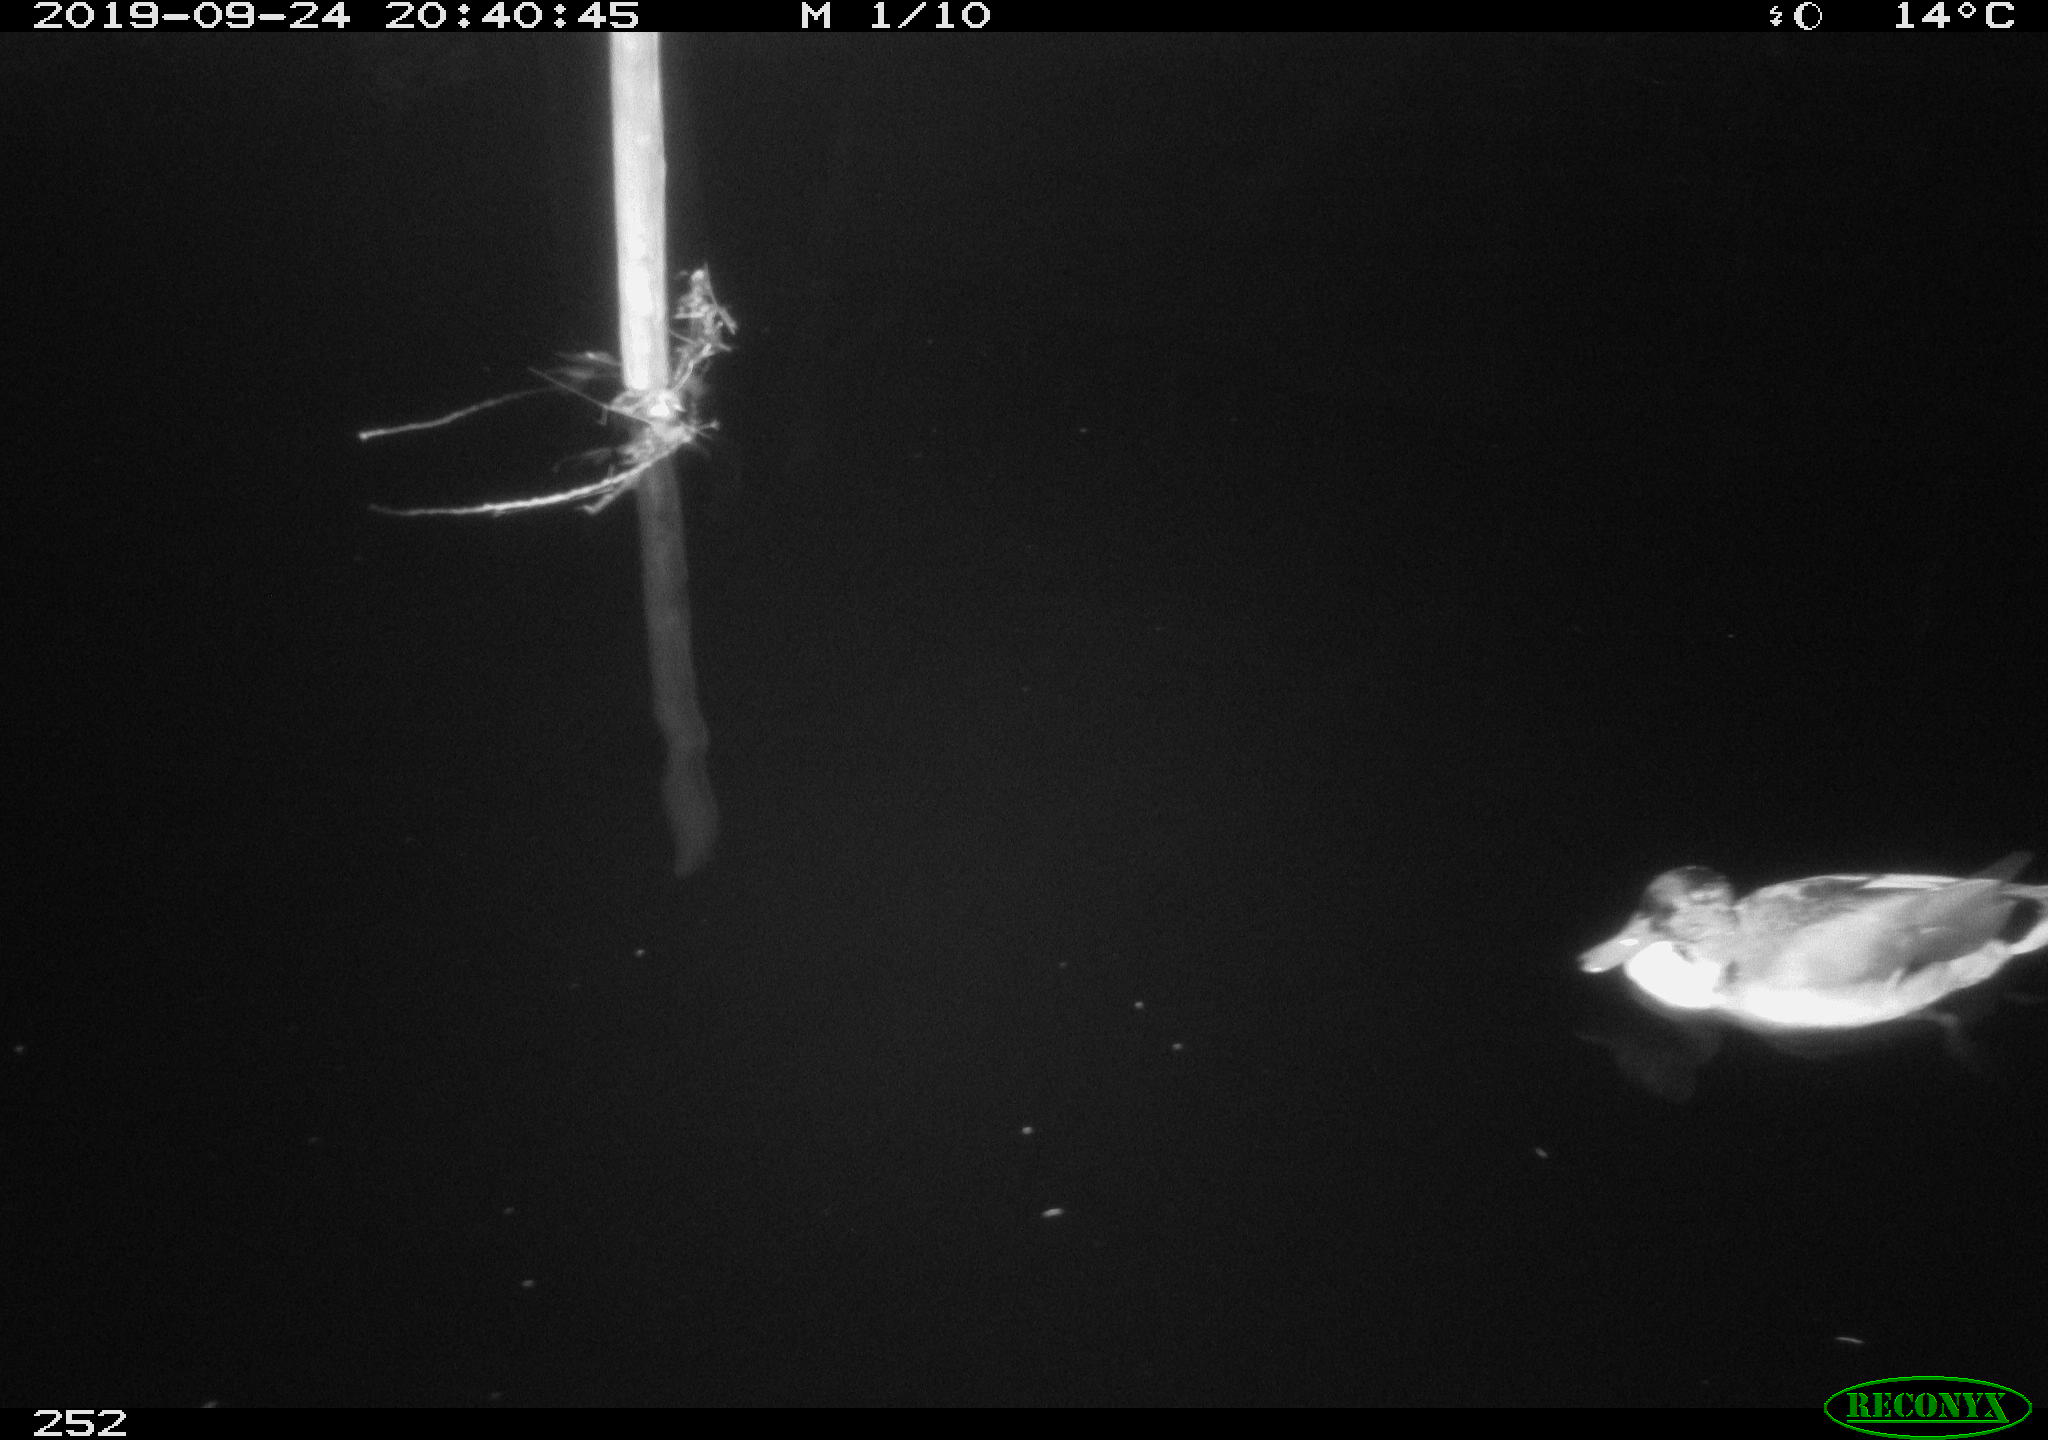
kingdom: Animalia
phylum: Chordata
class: Aves
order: Anseriformes
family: Anatidae
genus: Anas
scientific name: Anas platyrhynchos
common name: Mallard
